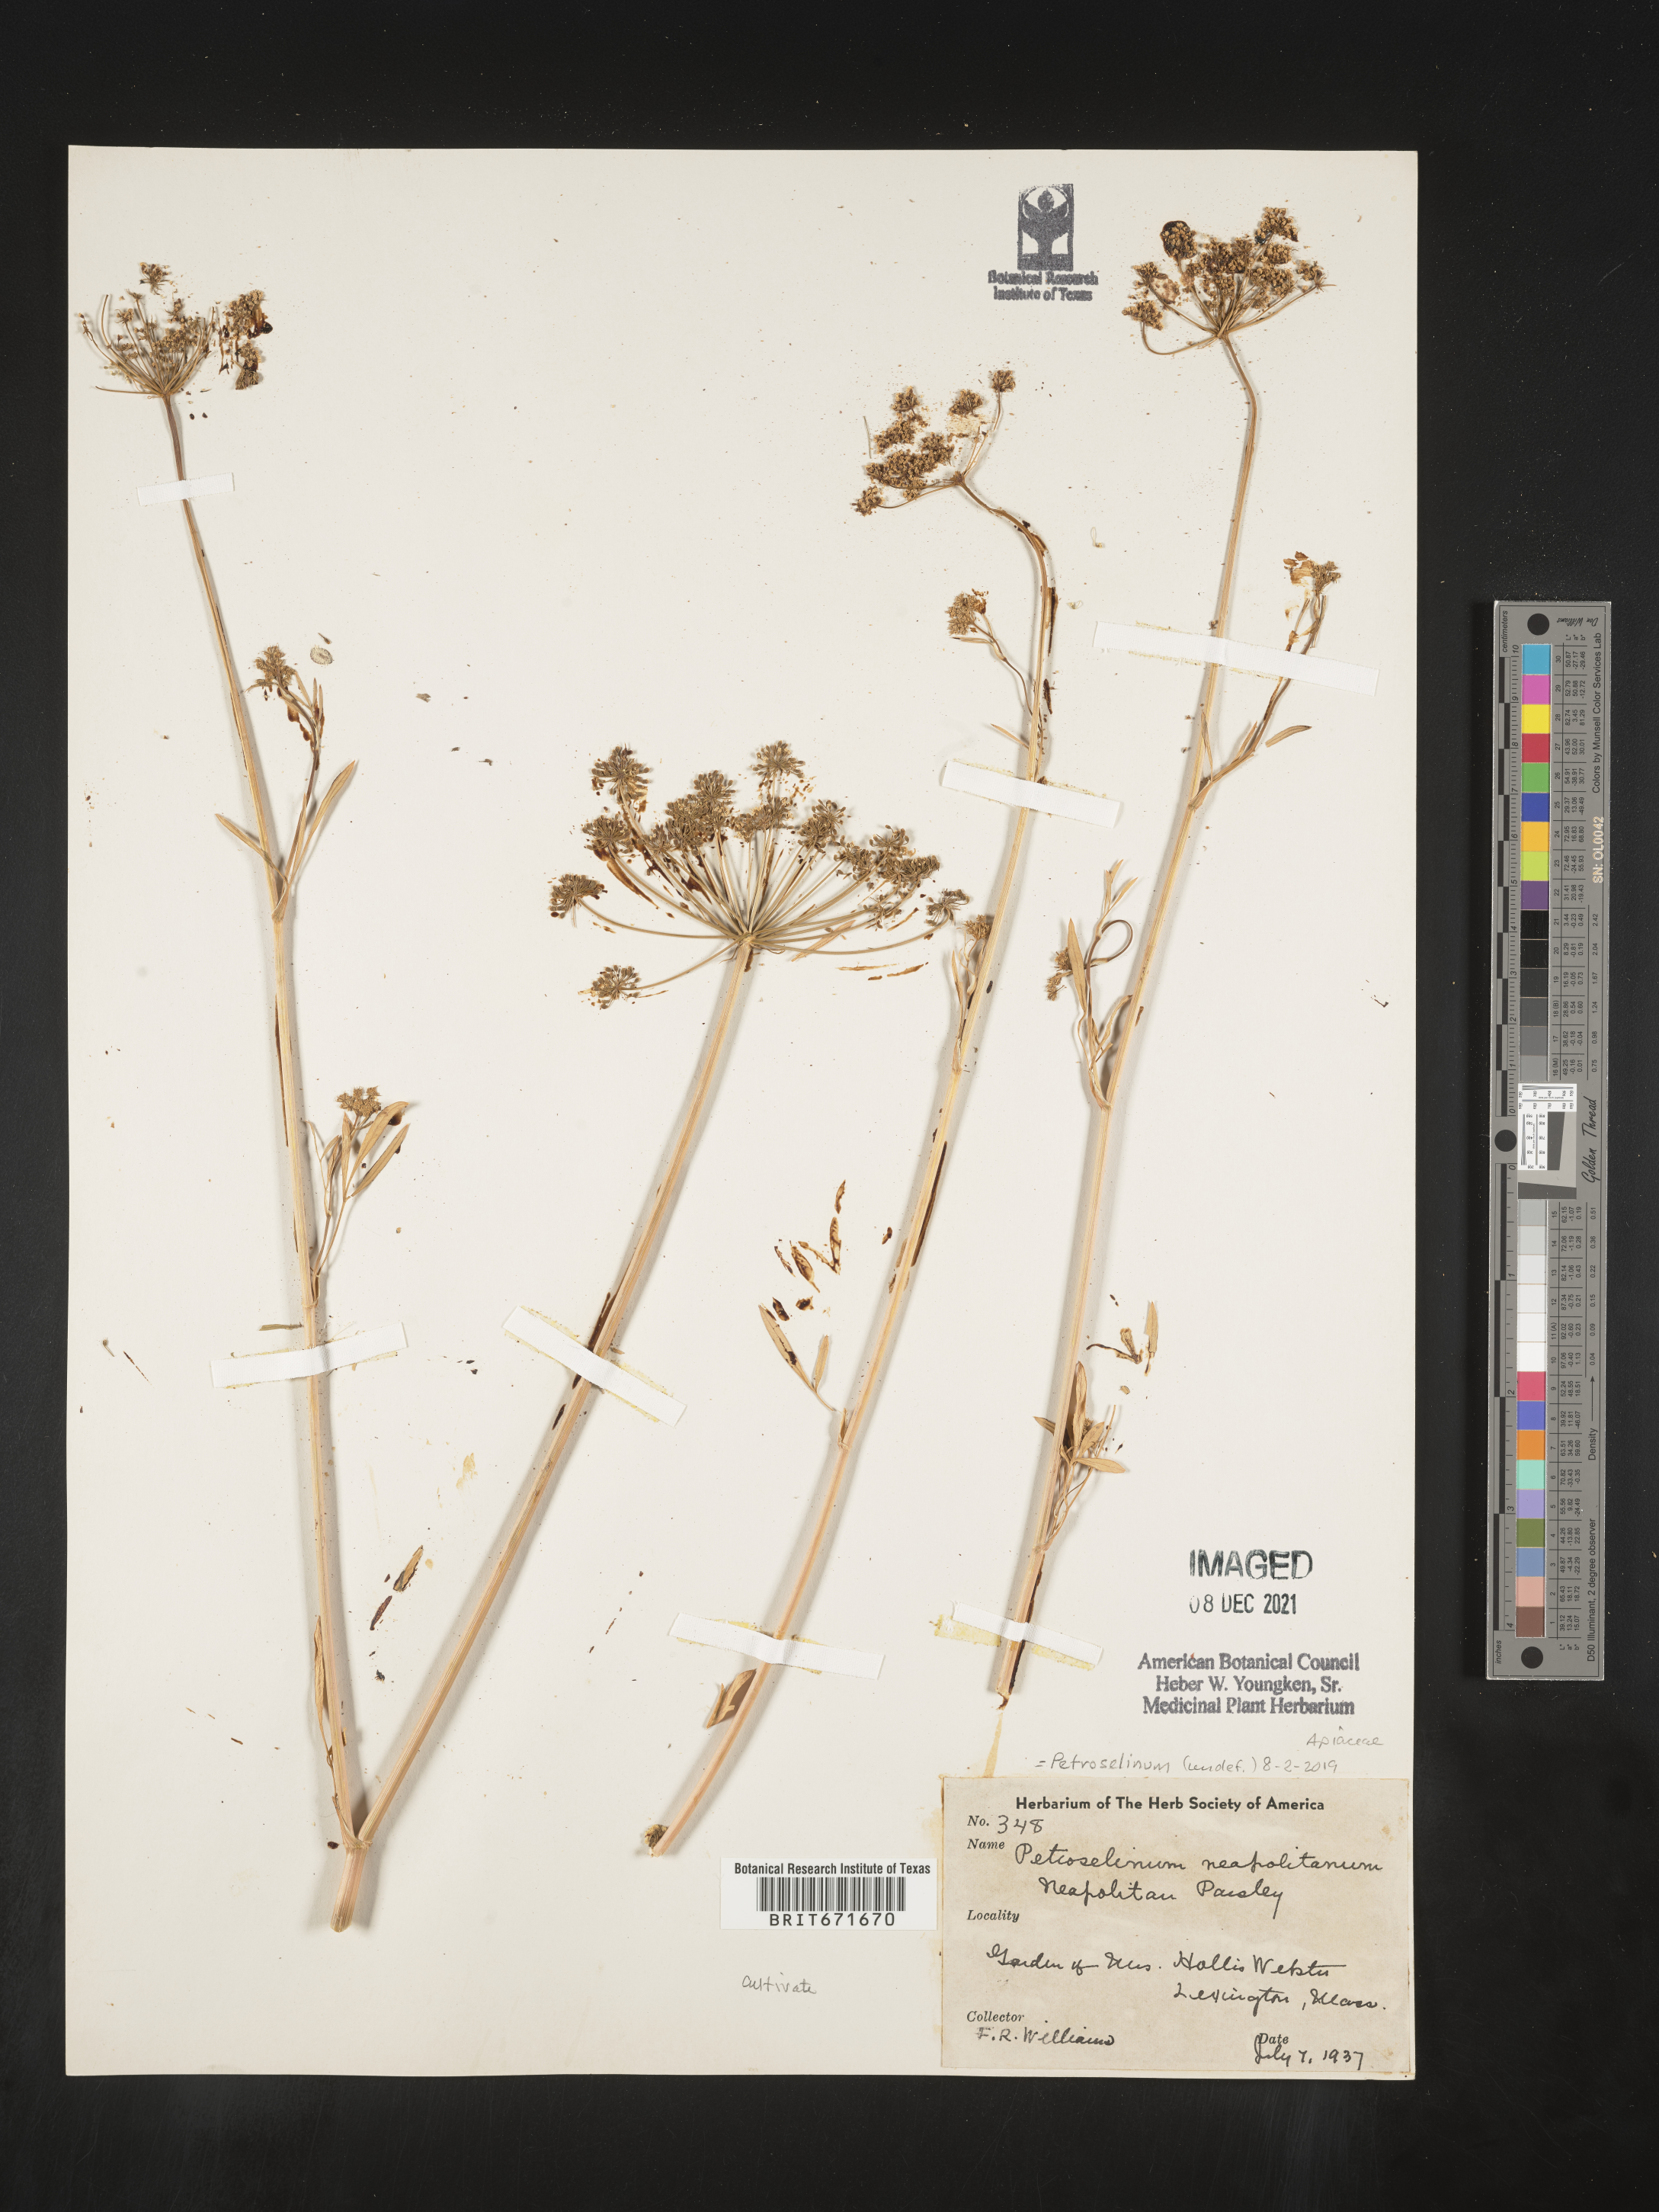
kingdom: Plantae
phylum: Tracheophyta
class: Magnoliopsida
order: Apiales
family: Apiaceae
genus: Petroselinum
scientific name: Petroselinum
